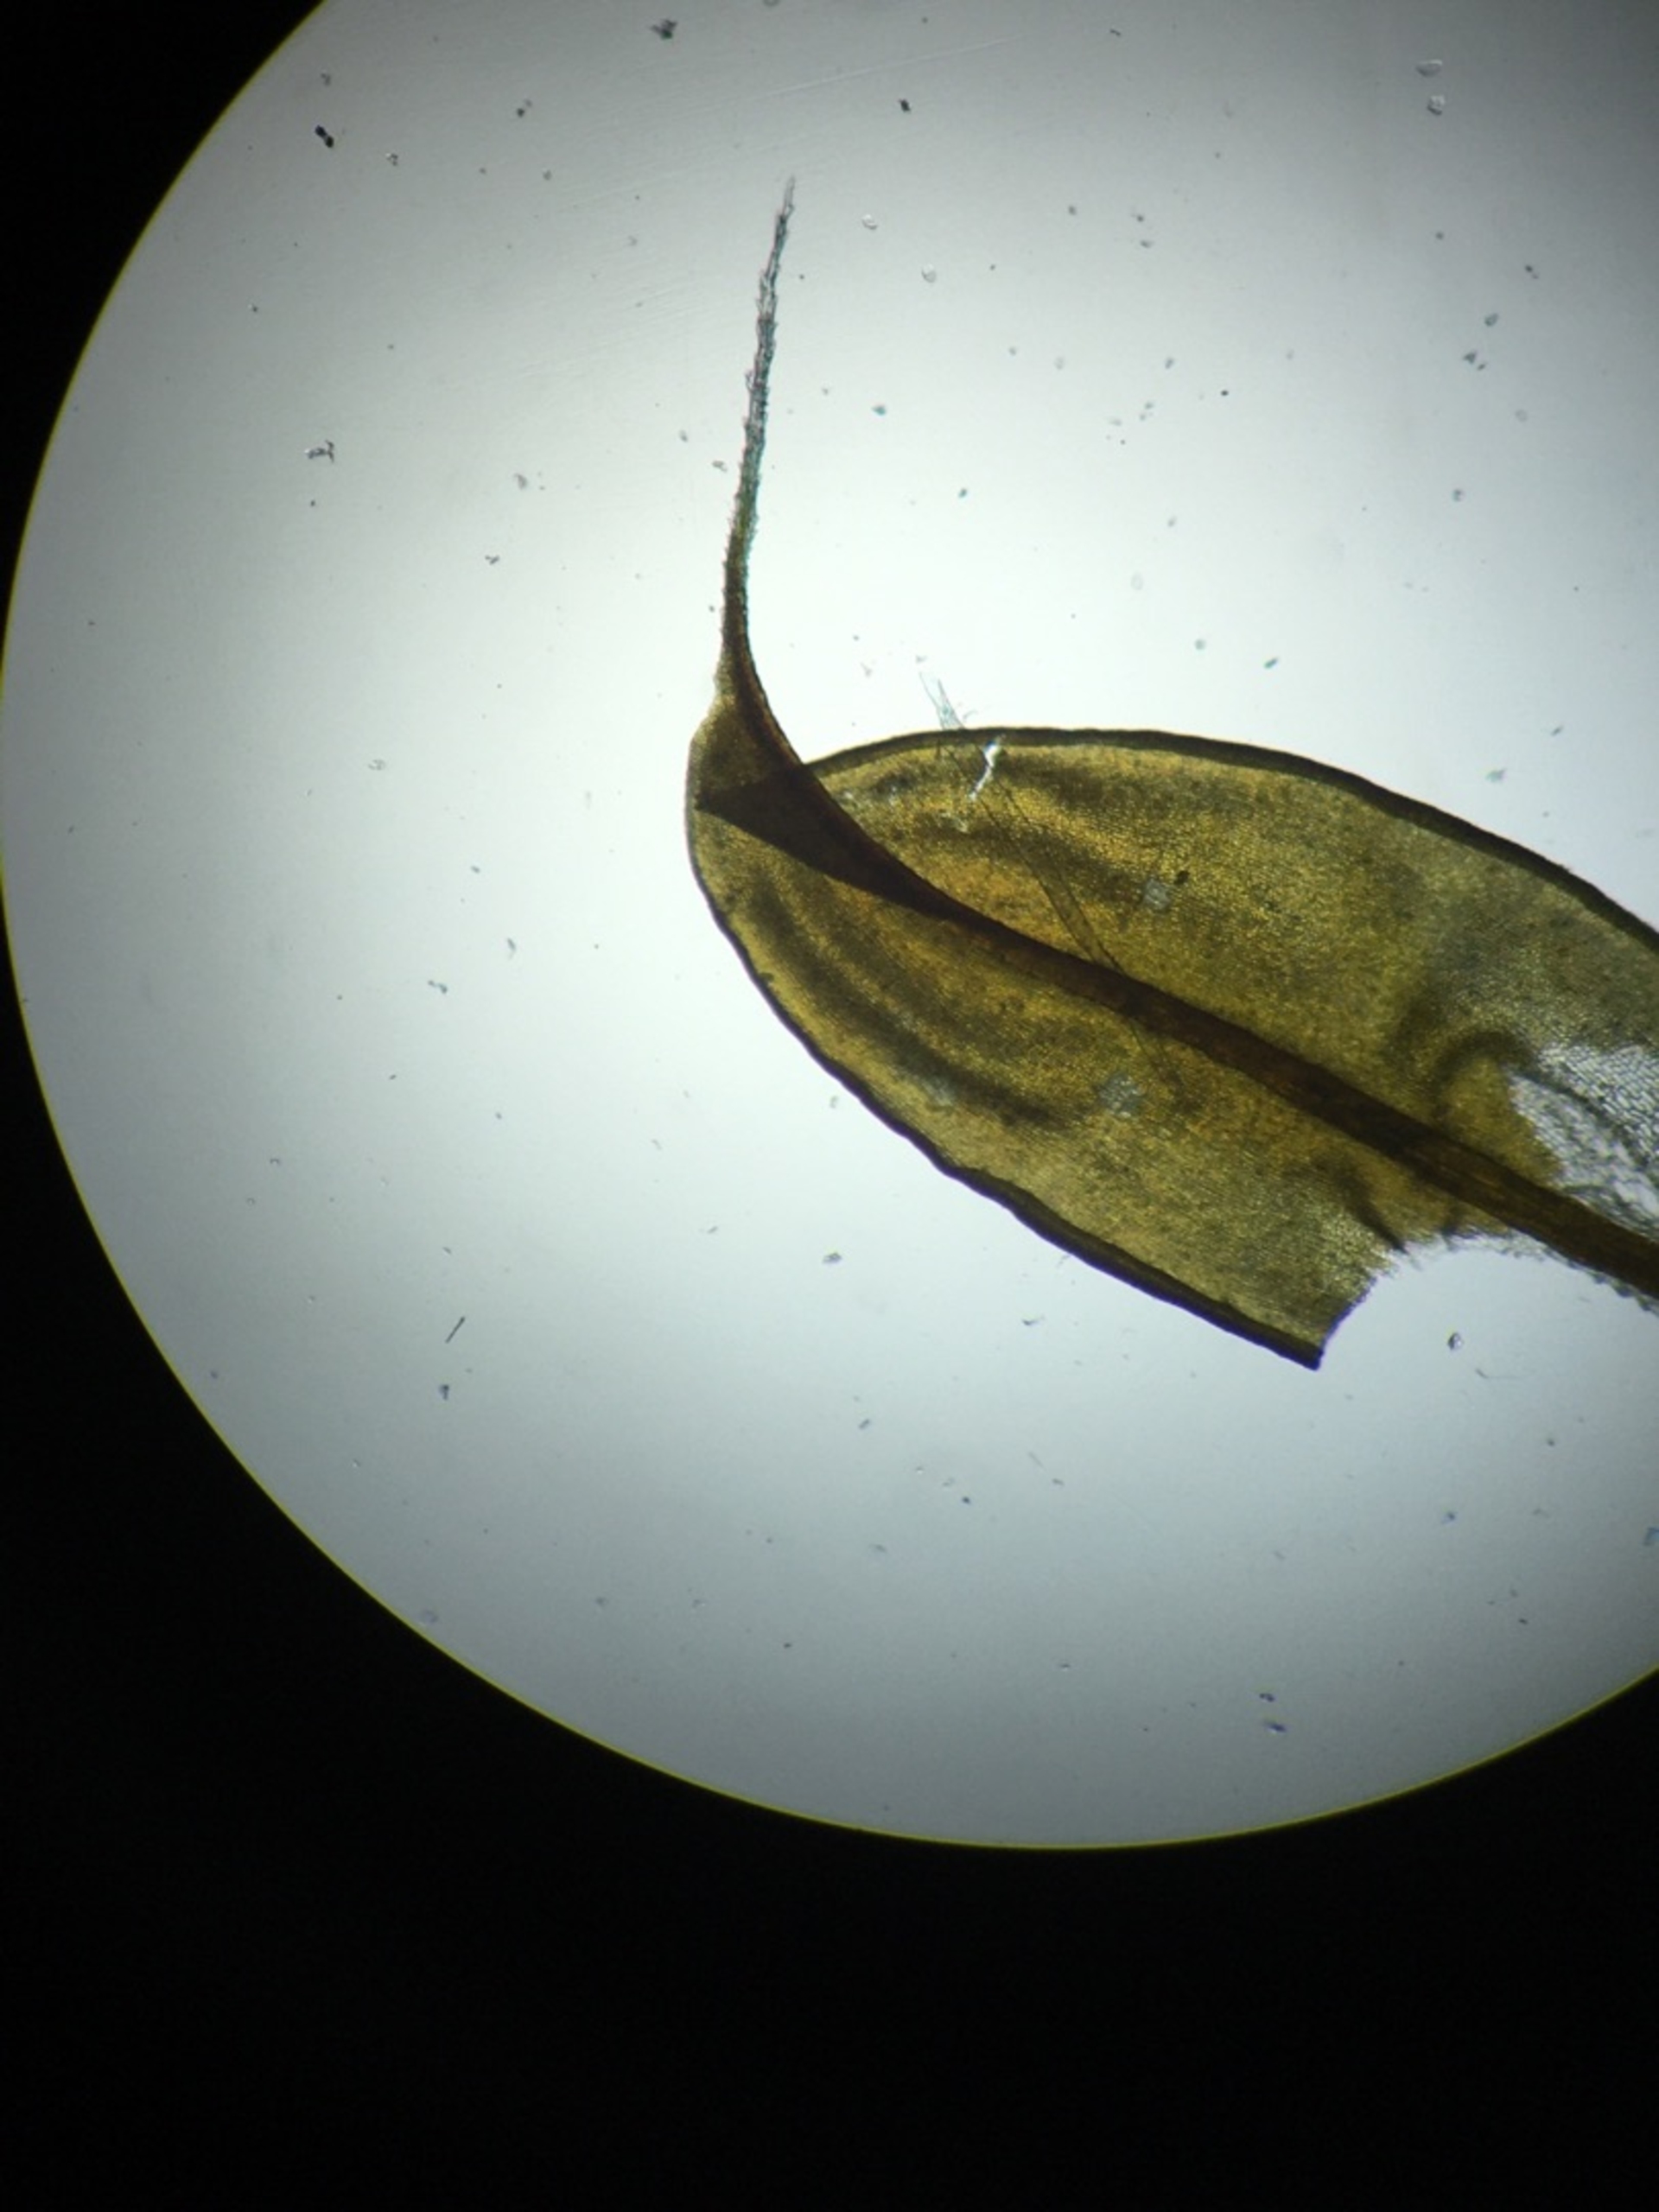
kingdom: Plantae
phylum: Bryophyta
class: Bryopsida
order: Pottiales
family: Pottiaceae
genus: Syntrichia
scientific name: Syntrichia ruralis
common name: Spidsbladet hårstjerne
